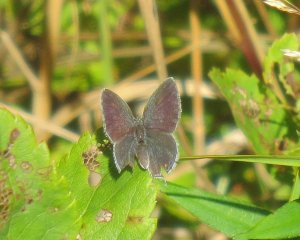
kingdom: Animalia
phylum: Arthropoda
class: Insecta
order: Lepidoptera
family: Lycaenidae
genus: Elkalyce
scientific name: Elkalyce comyntas
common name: Eastern Tailed-Blue
